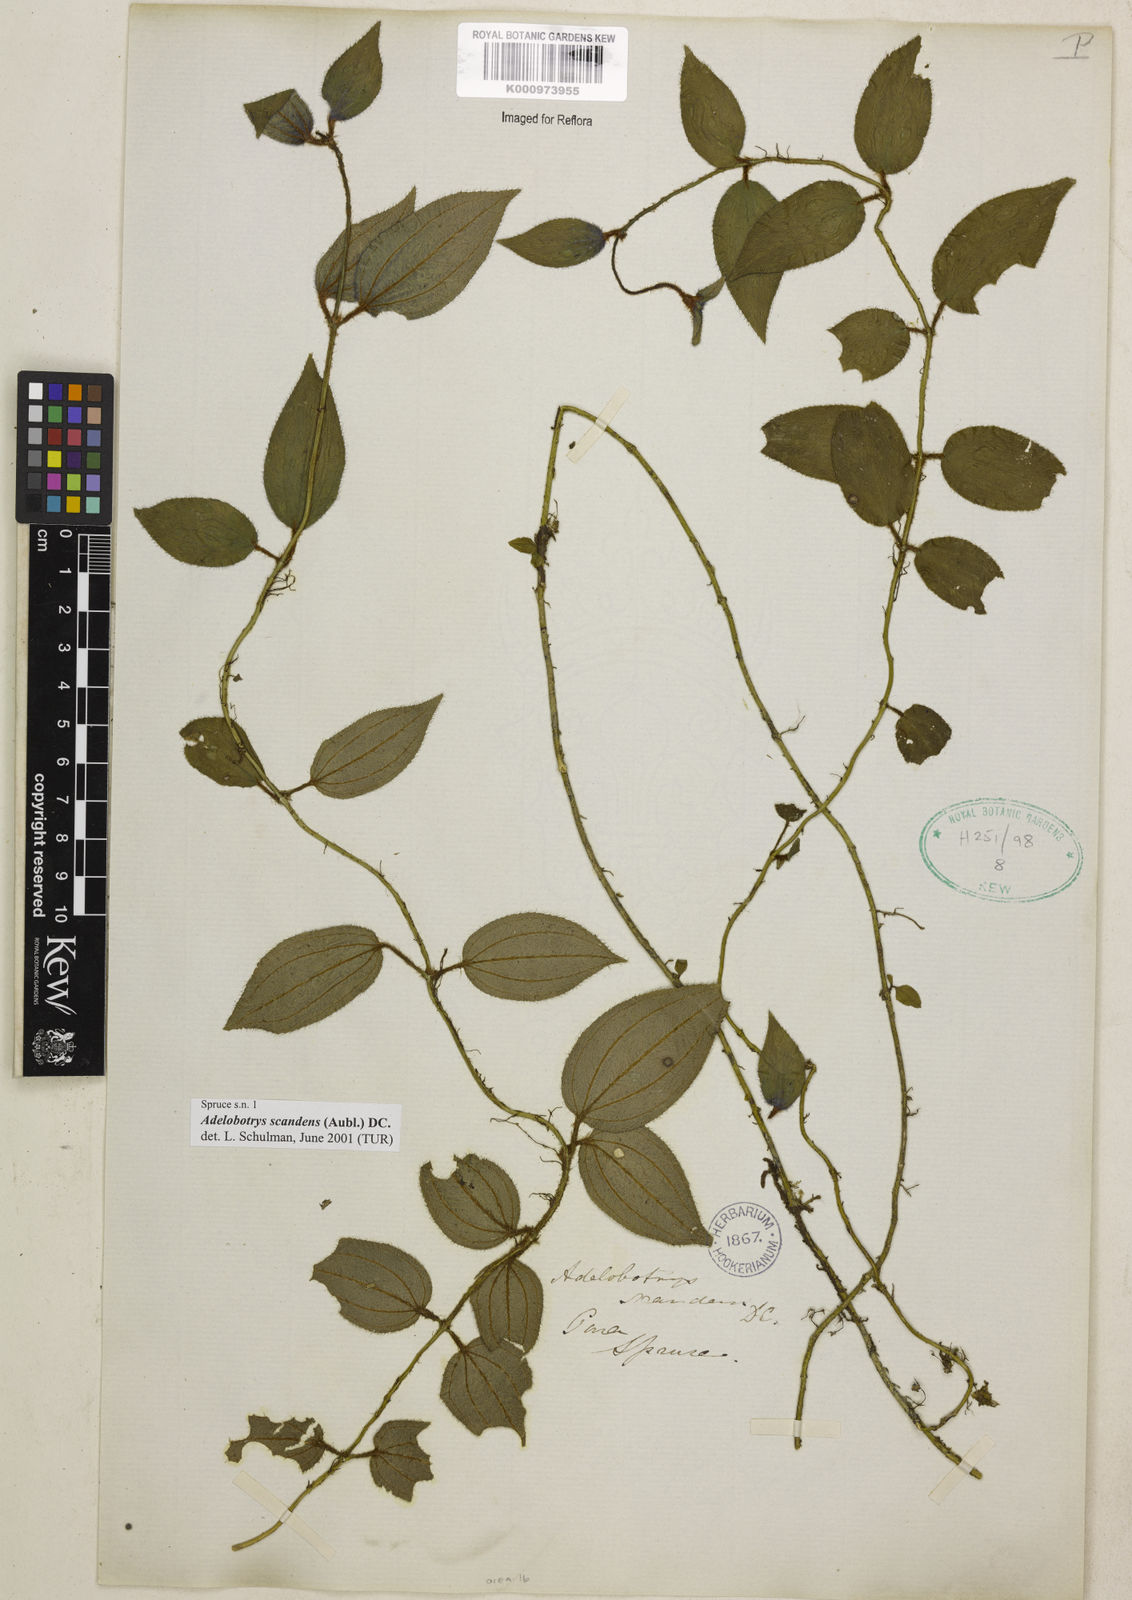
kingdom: Plantae
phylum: Tracheophyta
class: Magnoliopsida
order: Myrtales
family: Melastomataceae
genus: Adelobotrys
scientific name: Adelobotrys scandens
